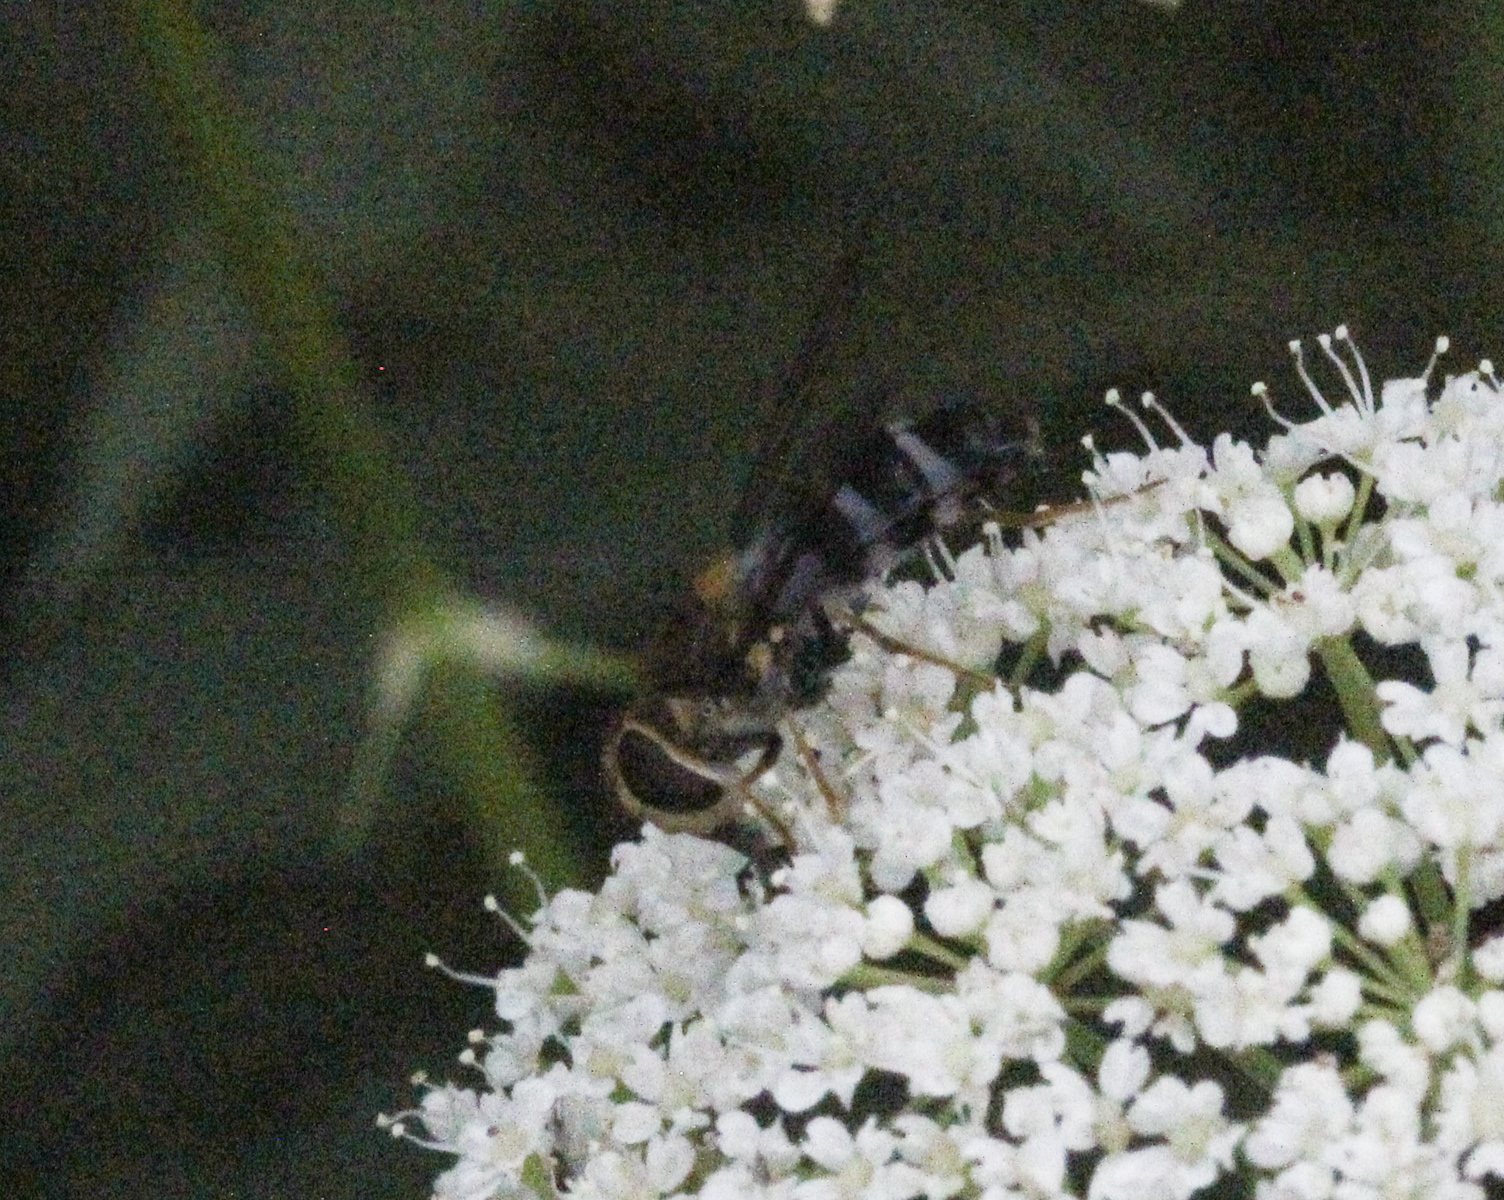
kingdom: Animalia
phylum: Arthropoda
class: Insecta
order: Diptera
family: Syrphidae
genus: Leucozona
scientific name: Leucozona glaucia
